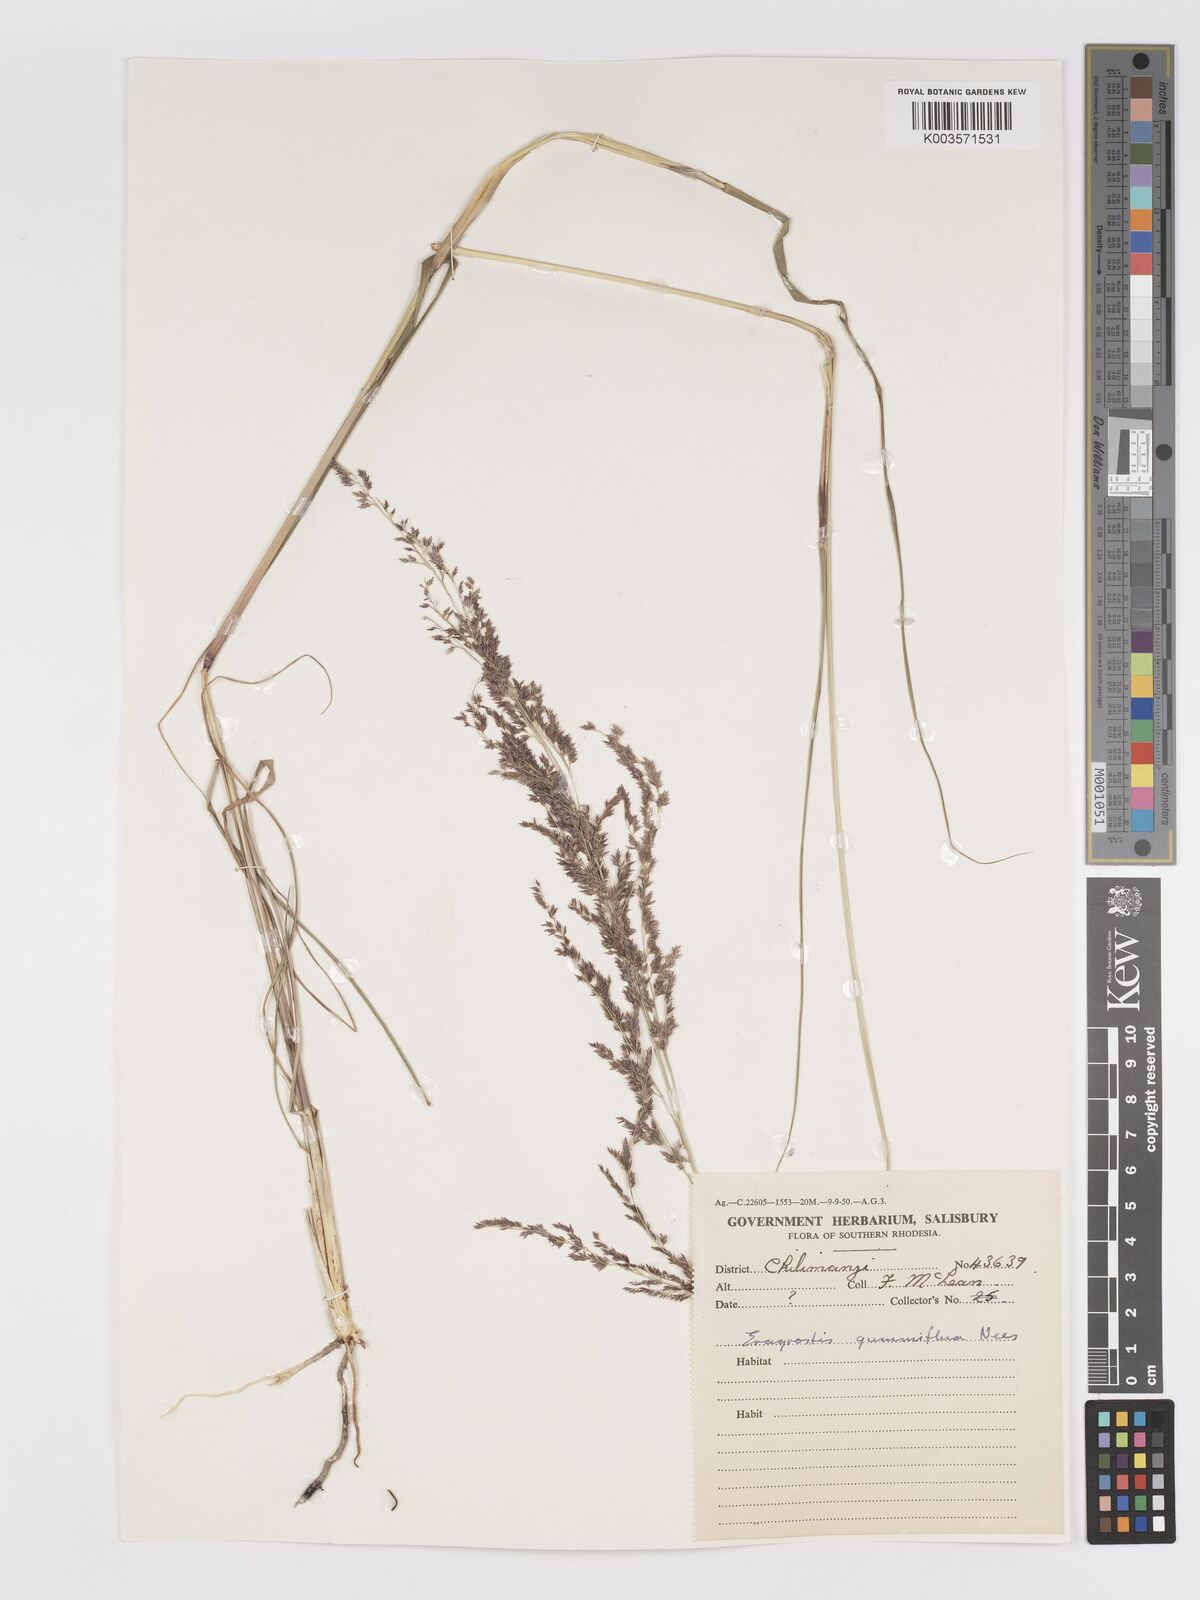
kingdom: Plantae
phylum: Tracheophyta
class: Liliopsida
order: Poales
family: Poaceae
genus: Eragrostis
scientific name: Eragrostis gummiflua
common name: Gum grass
